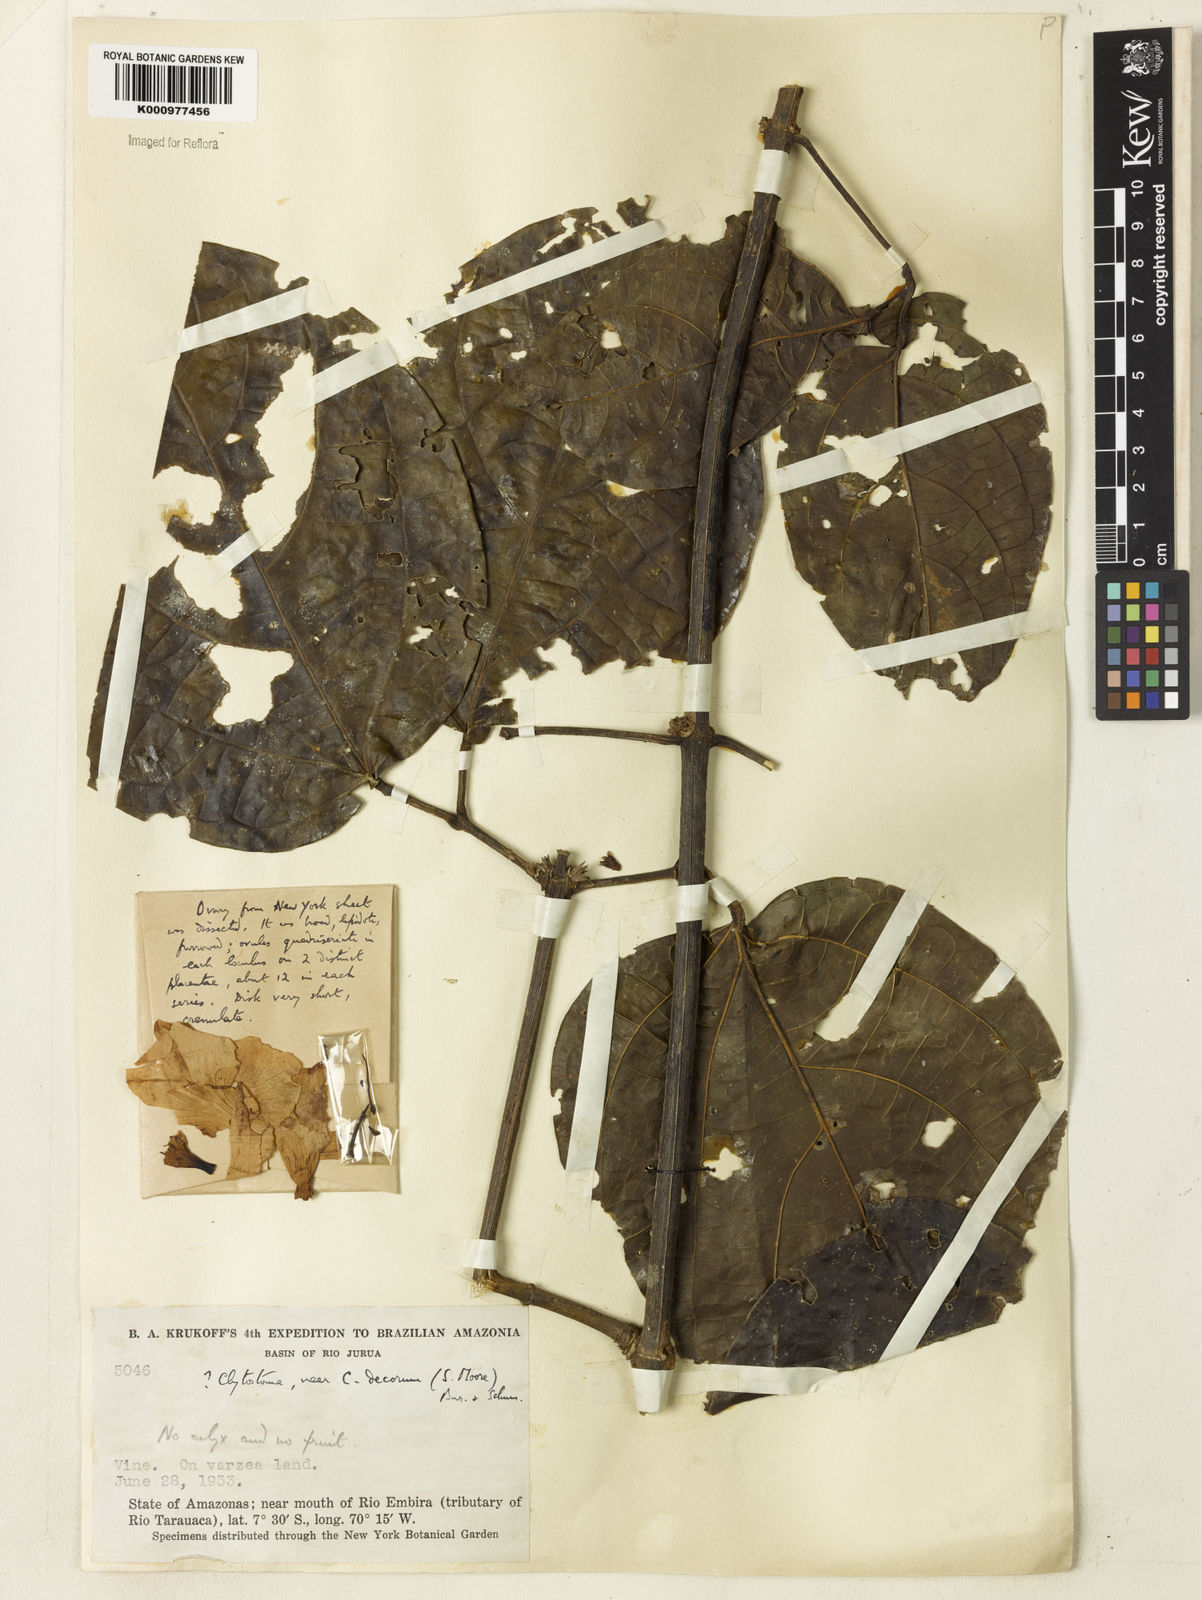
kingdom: Plantae
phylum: Tracheophyta
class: Magnoliopsida
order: Lamiales
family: Bignoniaceae
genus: Bignonia
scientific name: Bignonia
